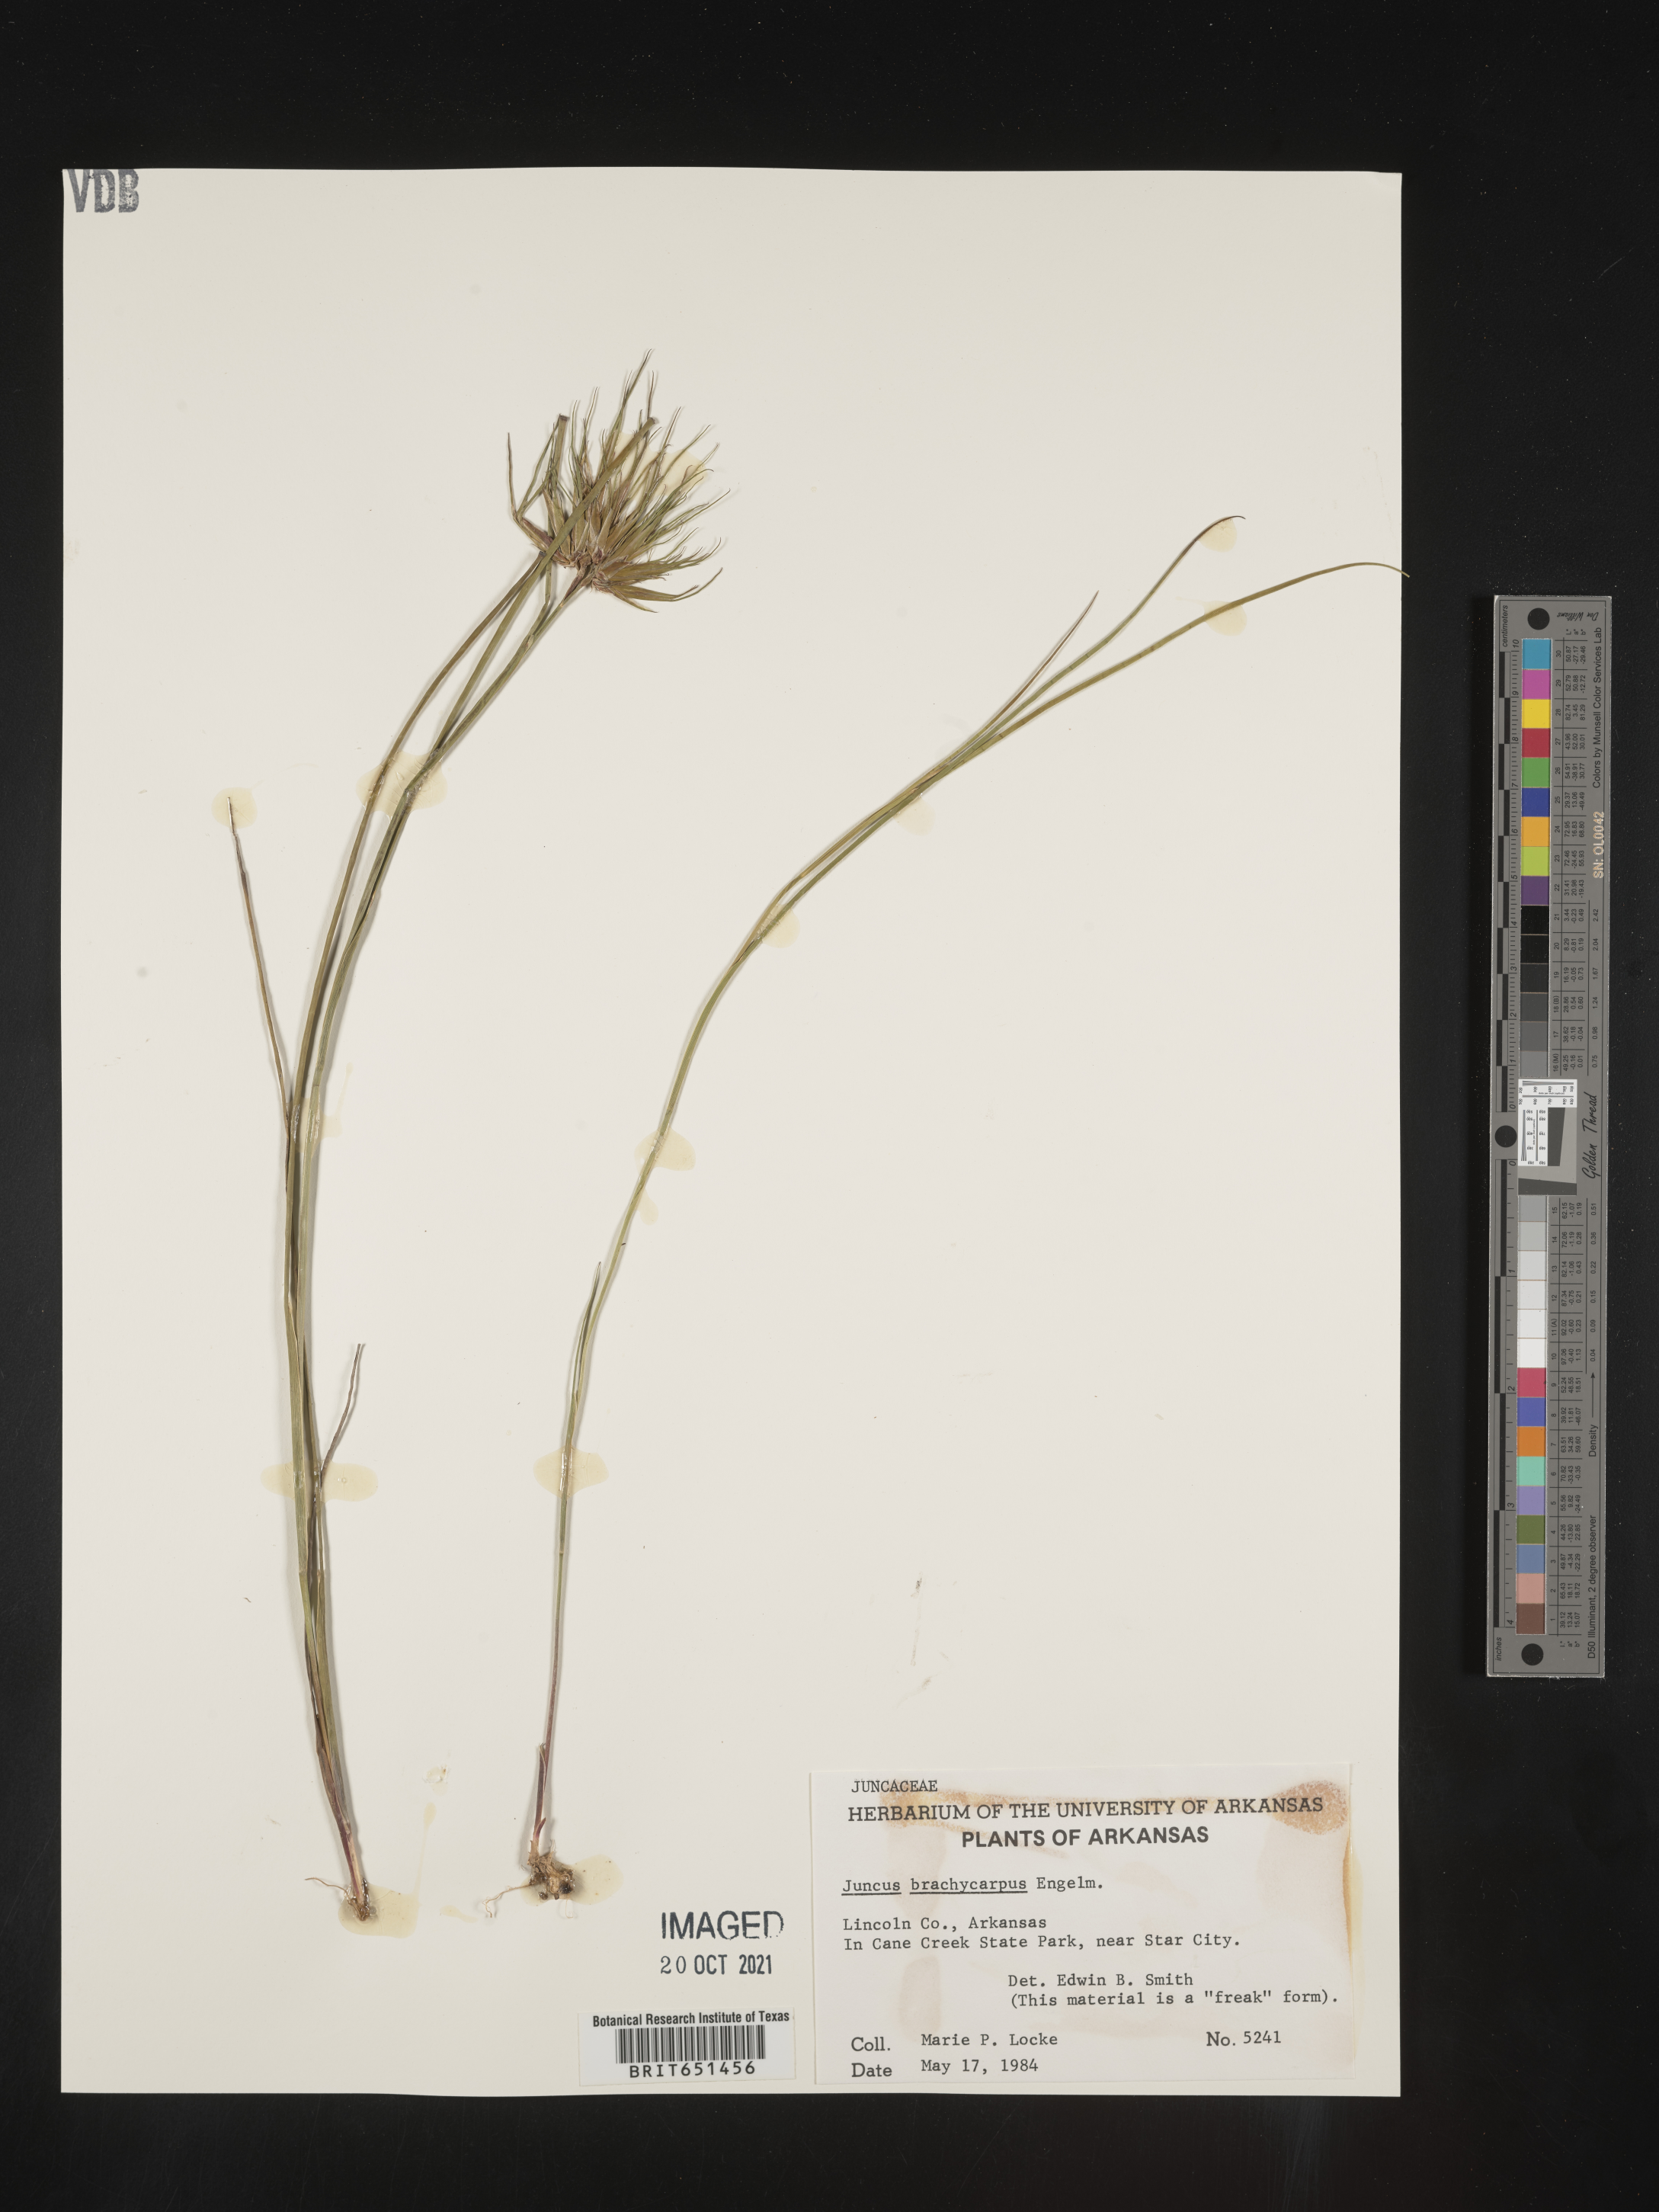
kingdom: Plantae
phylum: Tracheophyta
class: Liliopsida
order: Poales
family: Juncaceae
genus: Juncus
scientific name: Juncus brachycarpus
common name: Shore rush
